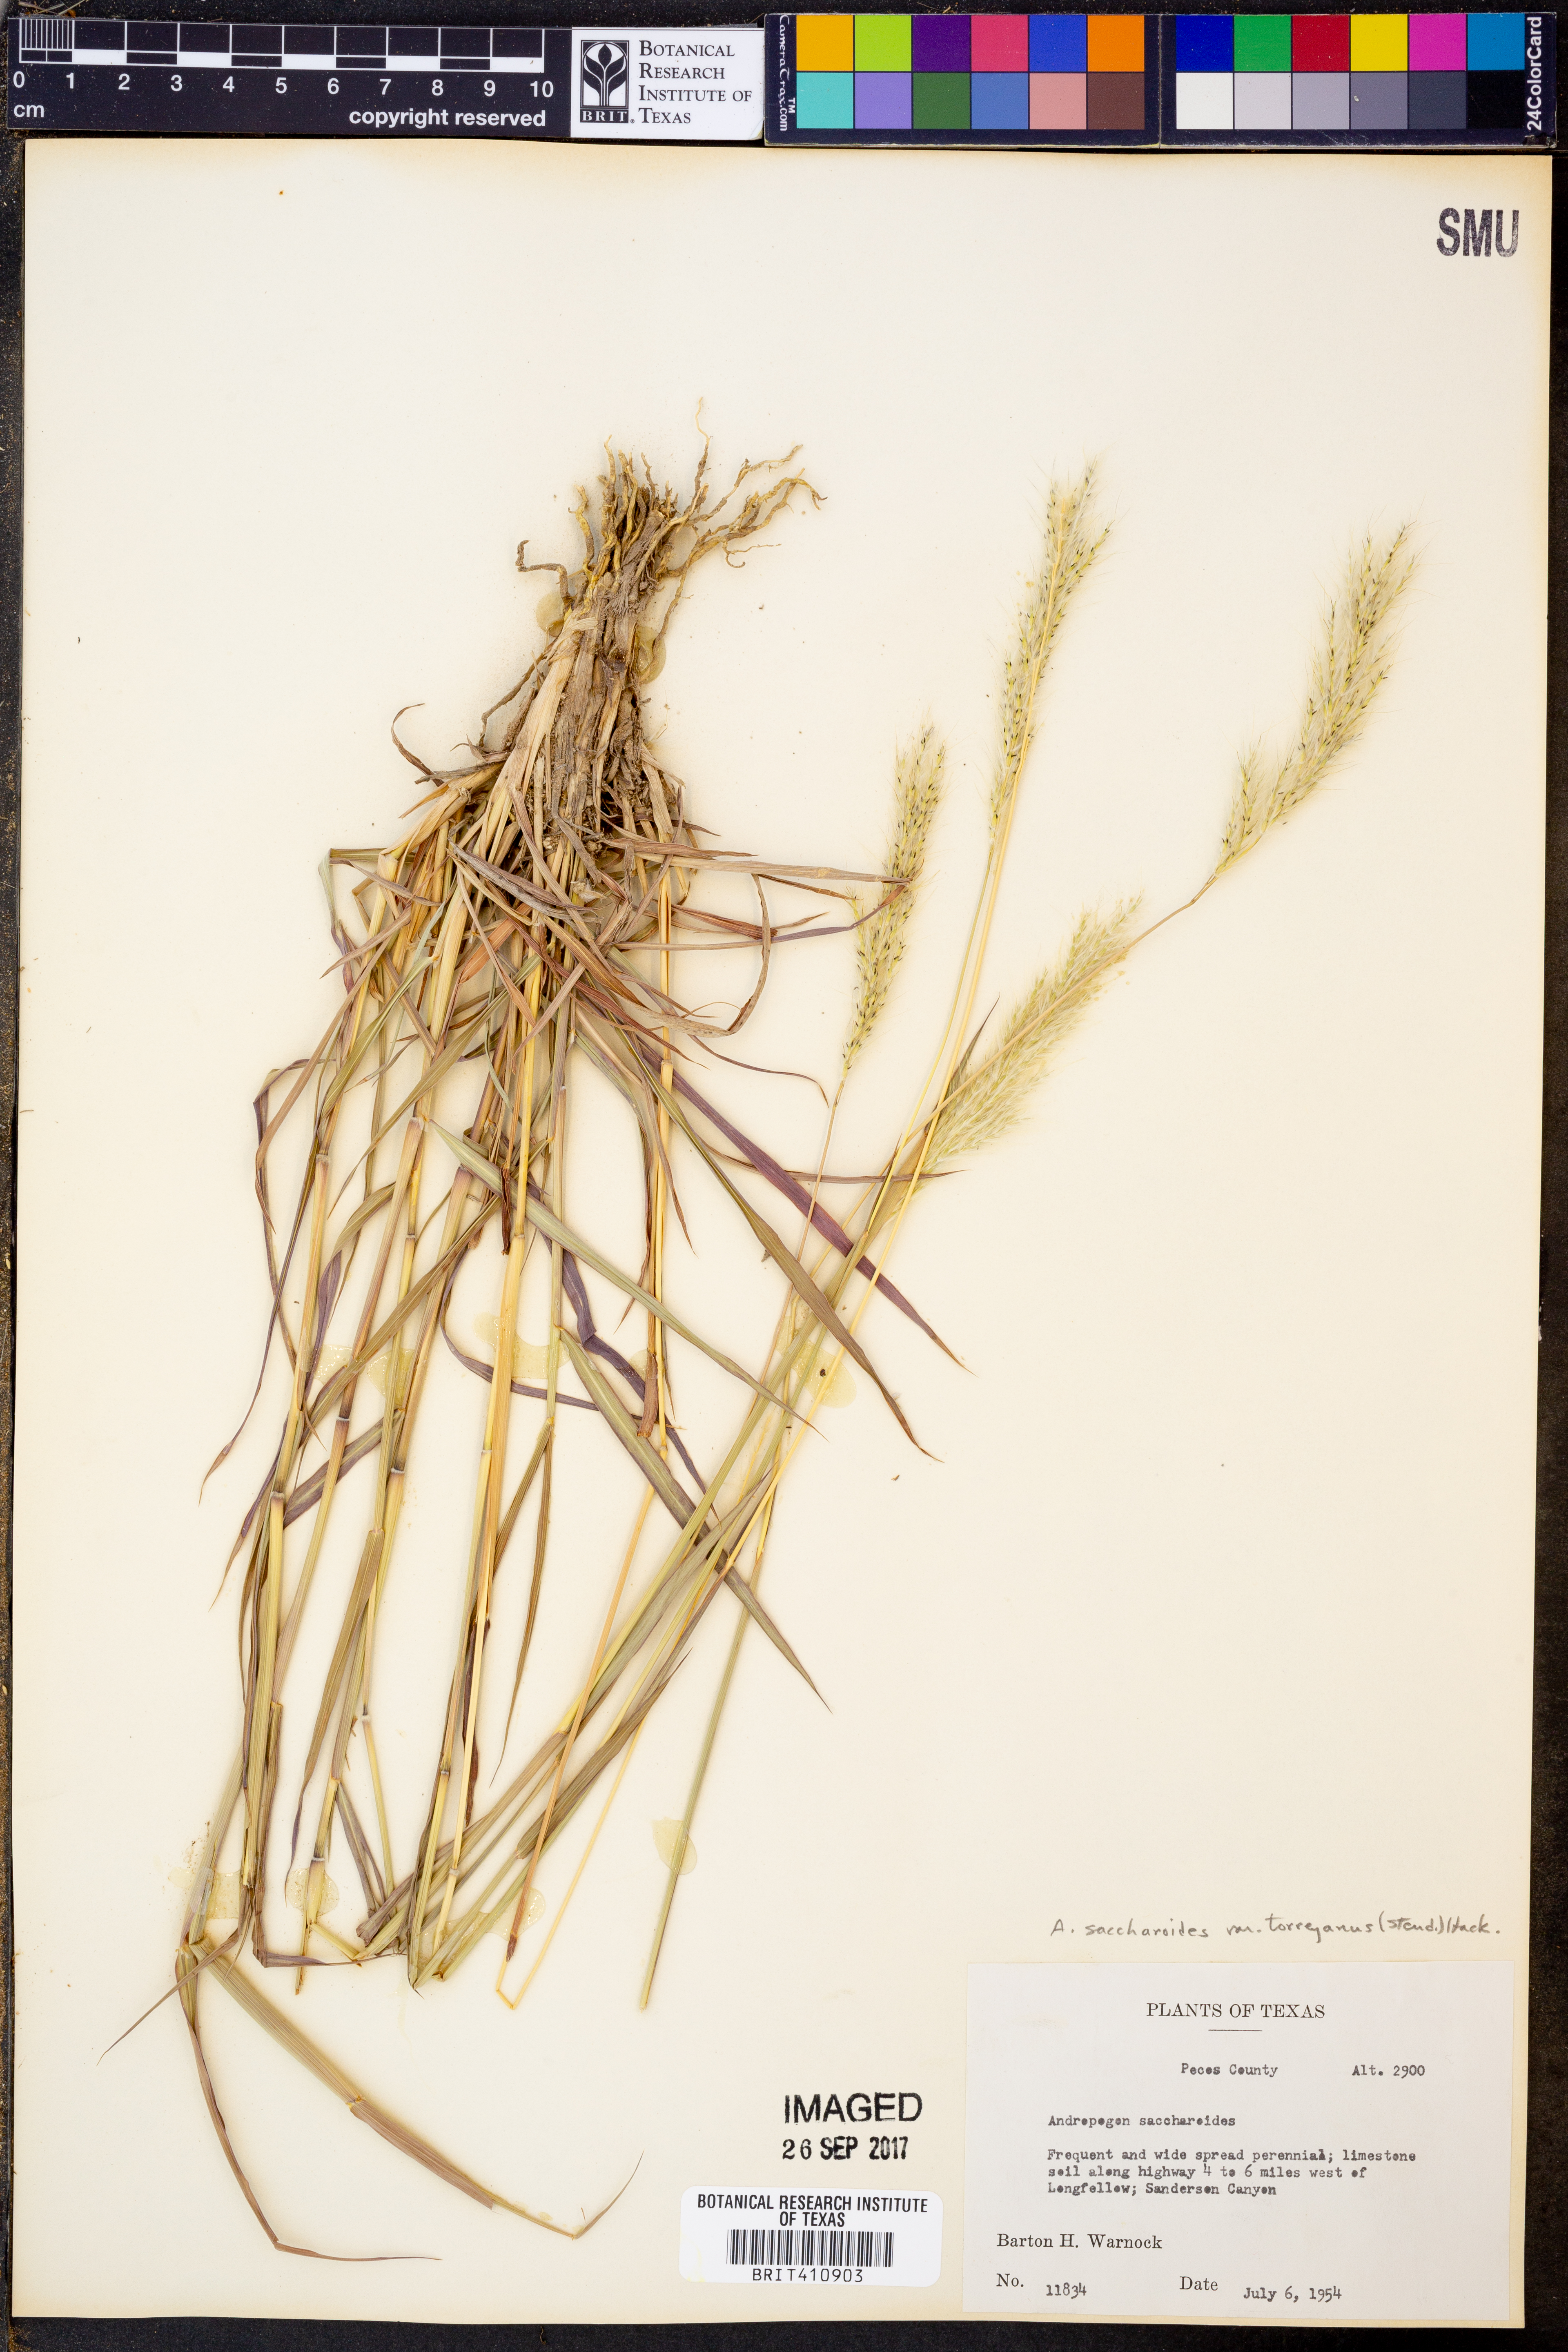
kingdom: Plantae
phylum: Tracheophyta
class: Liliopsida
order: Poales
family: Poaceae
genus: Bothriochloa
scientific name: Bothriochloa torreyana
